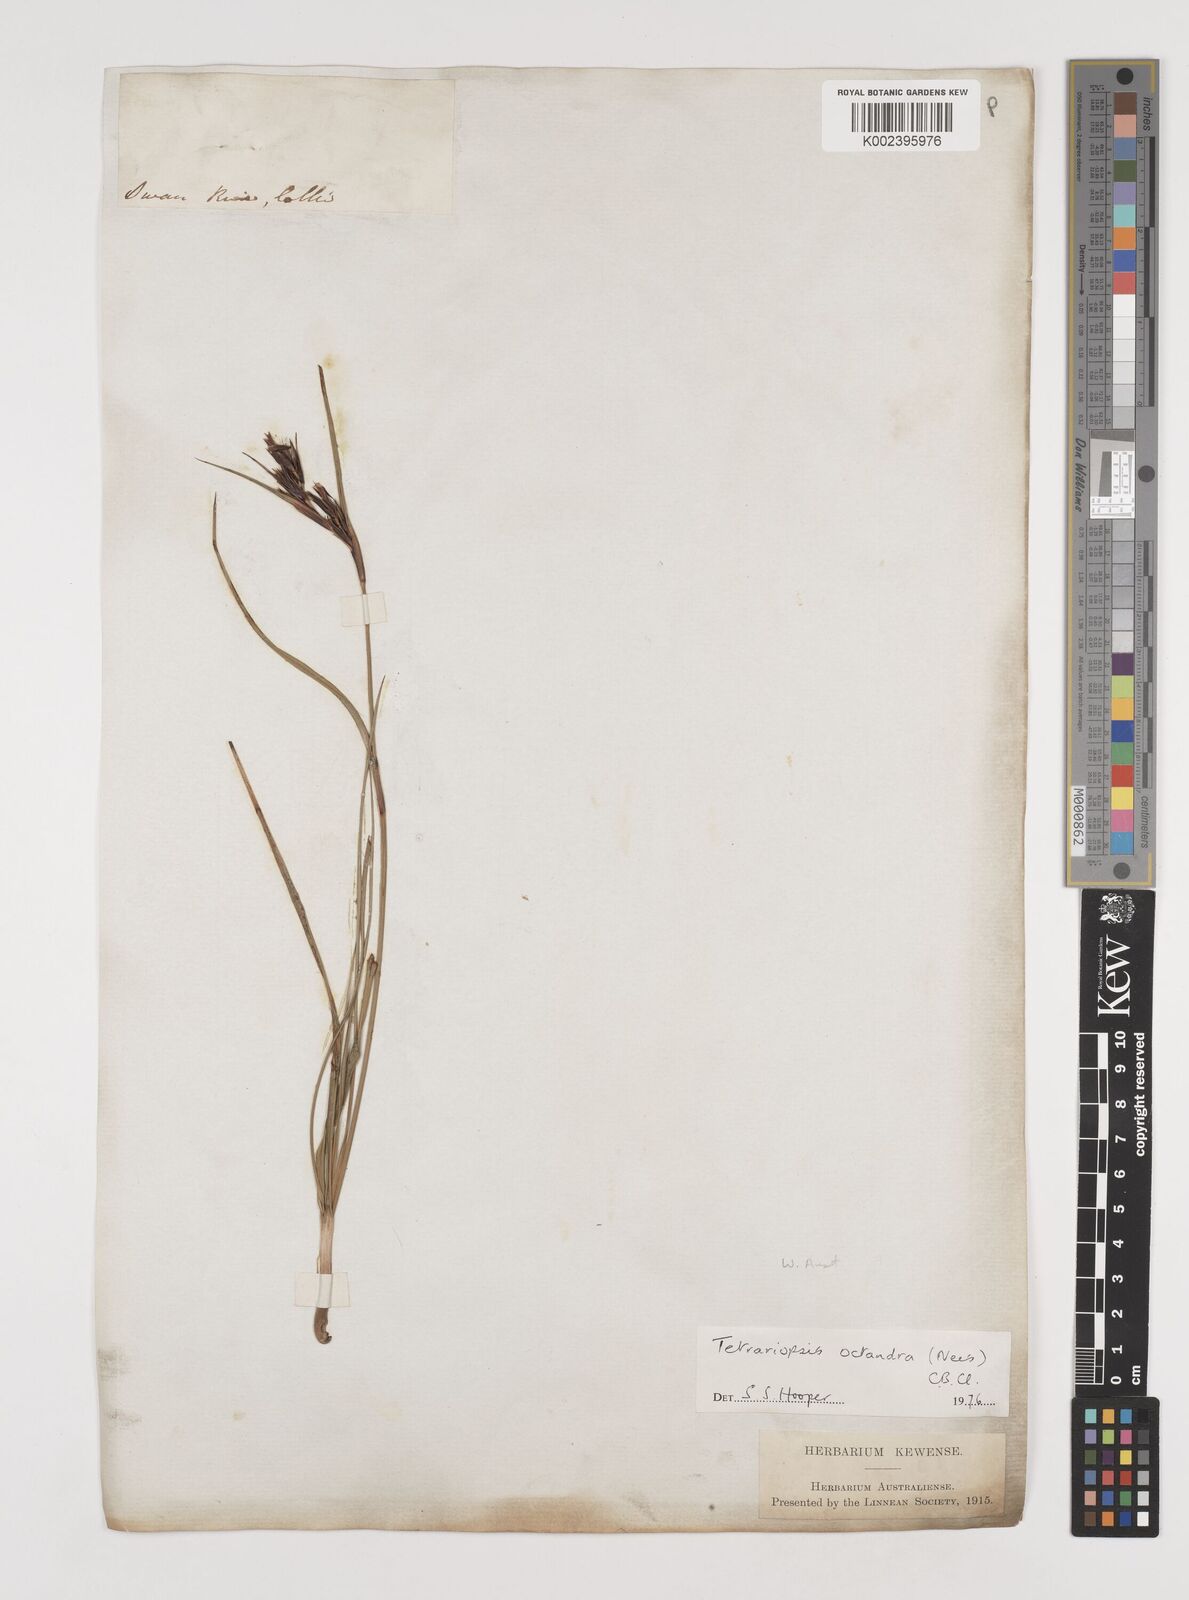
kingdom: Plantae
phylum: Tracheophyta
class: Liliopsida
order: Poales
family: Cyperaceae
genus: Tetraria
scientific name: Tetraria octandra
